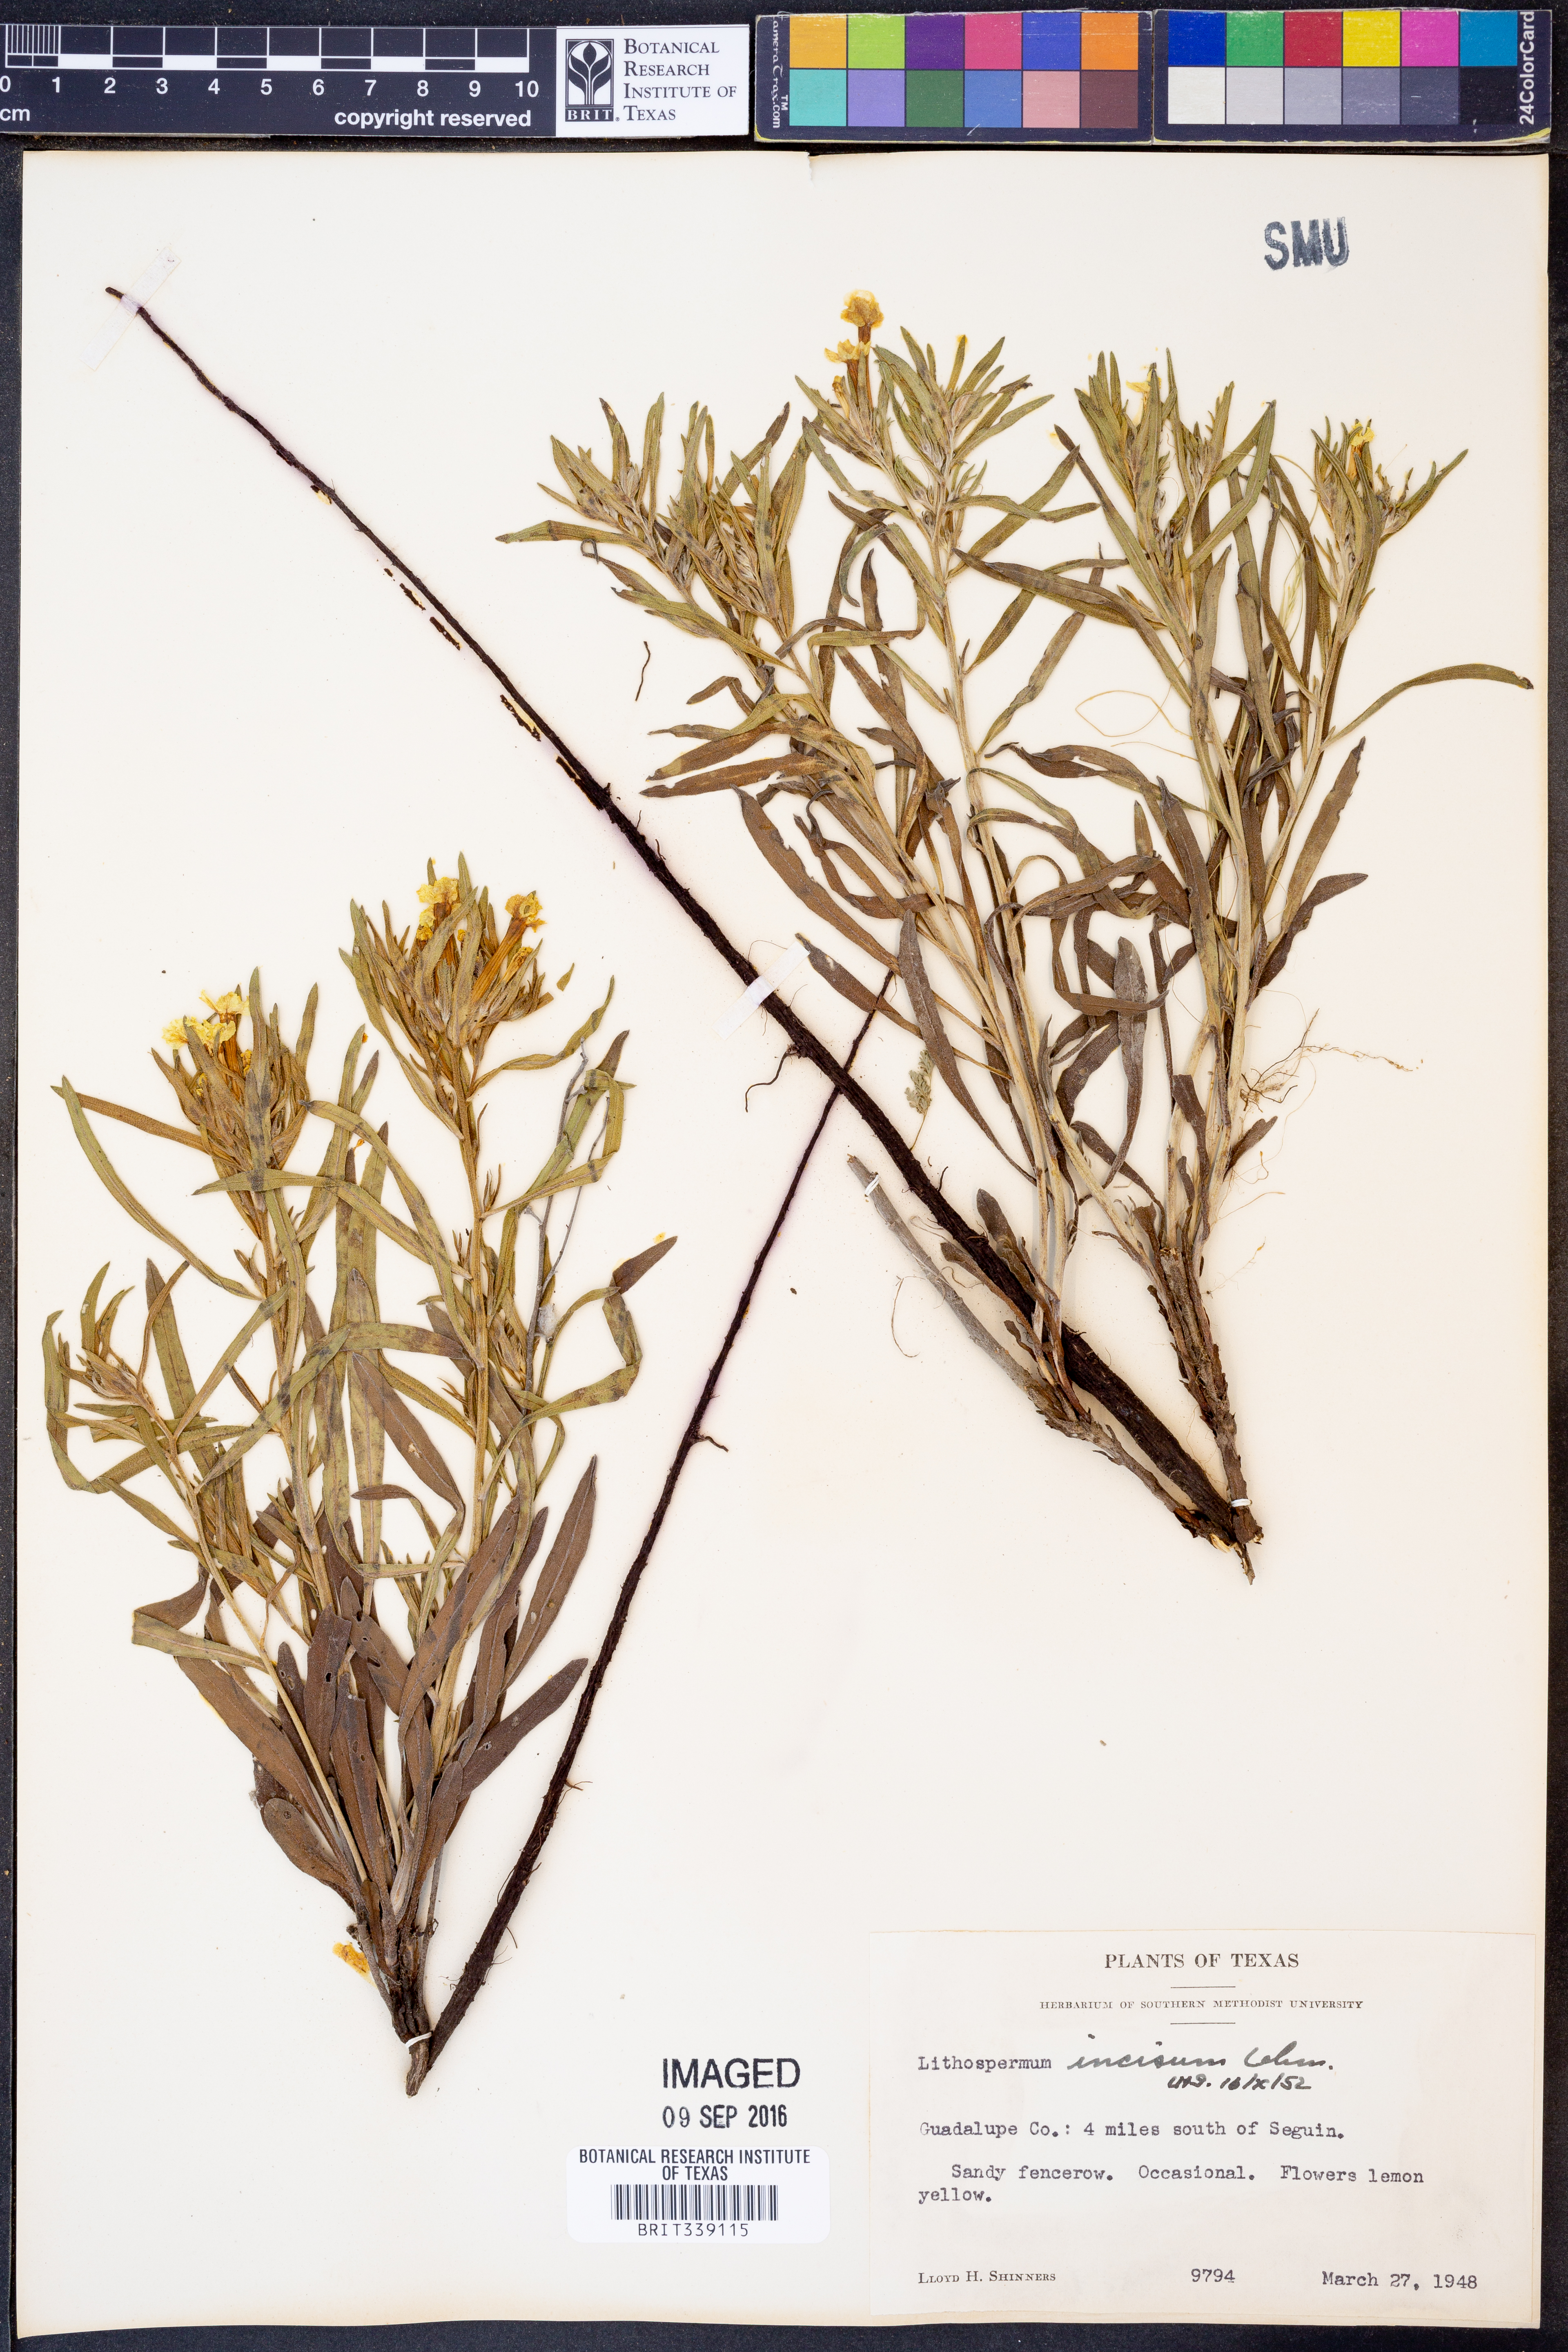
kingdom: Plantae
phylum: Tracheophyta
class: Magnoliopsida
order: Boraginales
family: Boraginaceae
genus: Lithospermum
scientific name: Lithospermum incisum
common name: Fringed gromwell
